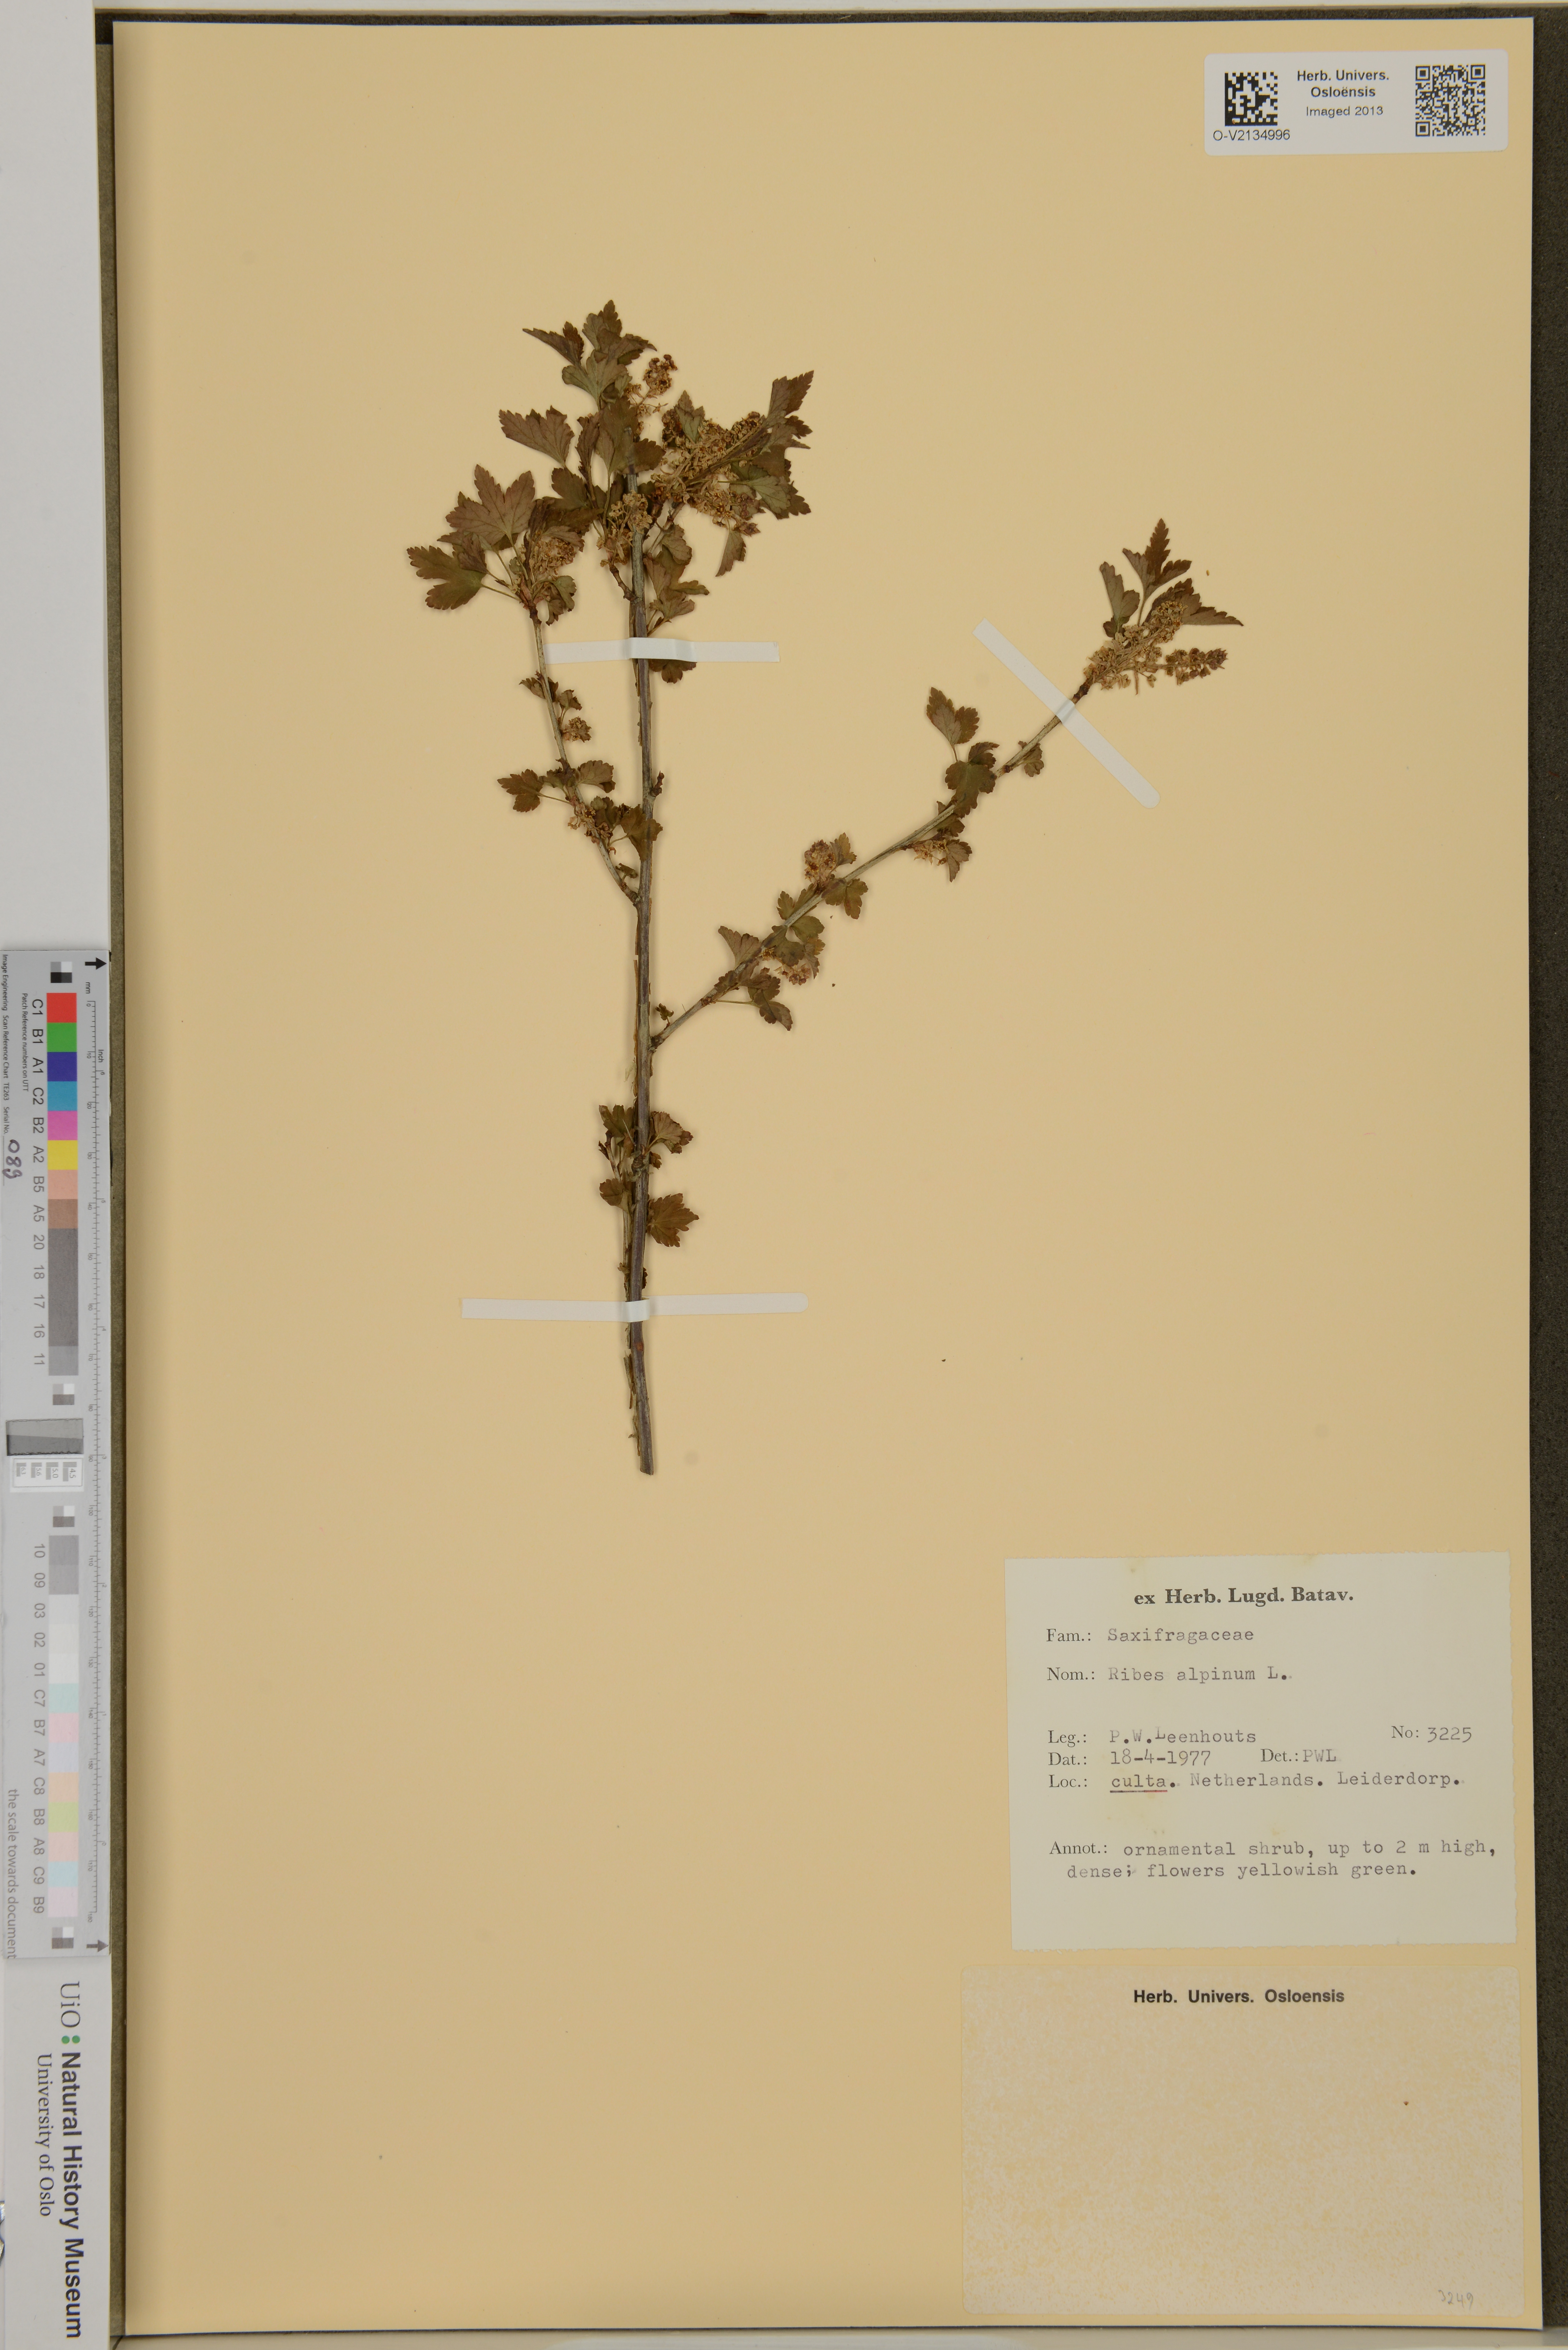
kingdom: Plantae
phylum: Tracheophyta
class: Magnoliopsida
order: Saxifragales
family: Grossulariaceae
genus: Ribes
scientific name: Ribes alpinum
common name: Alpine currant
